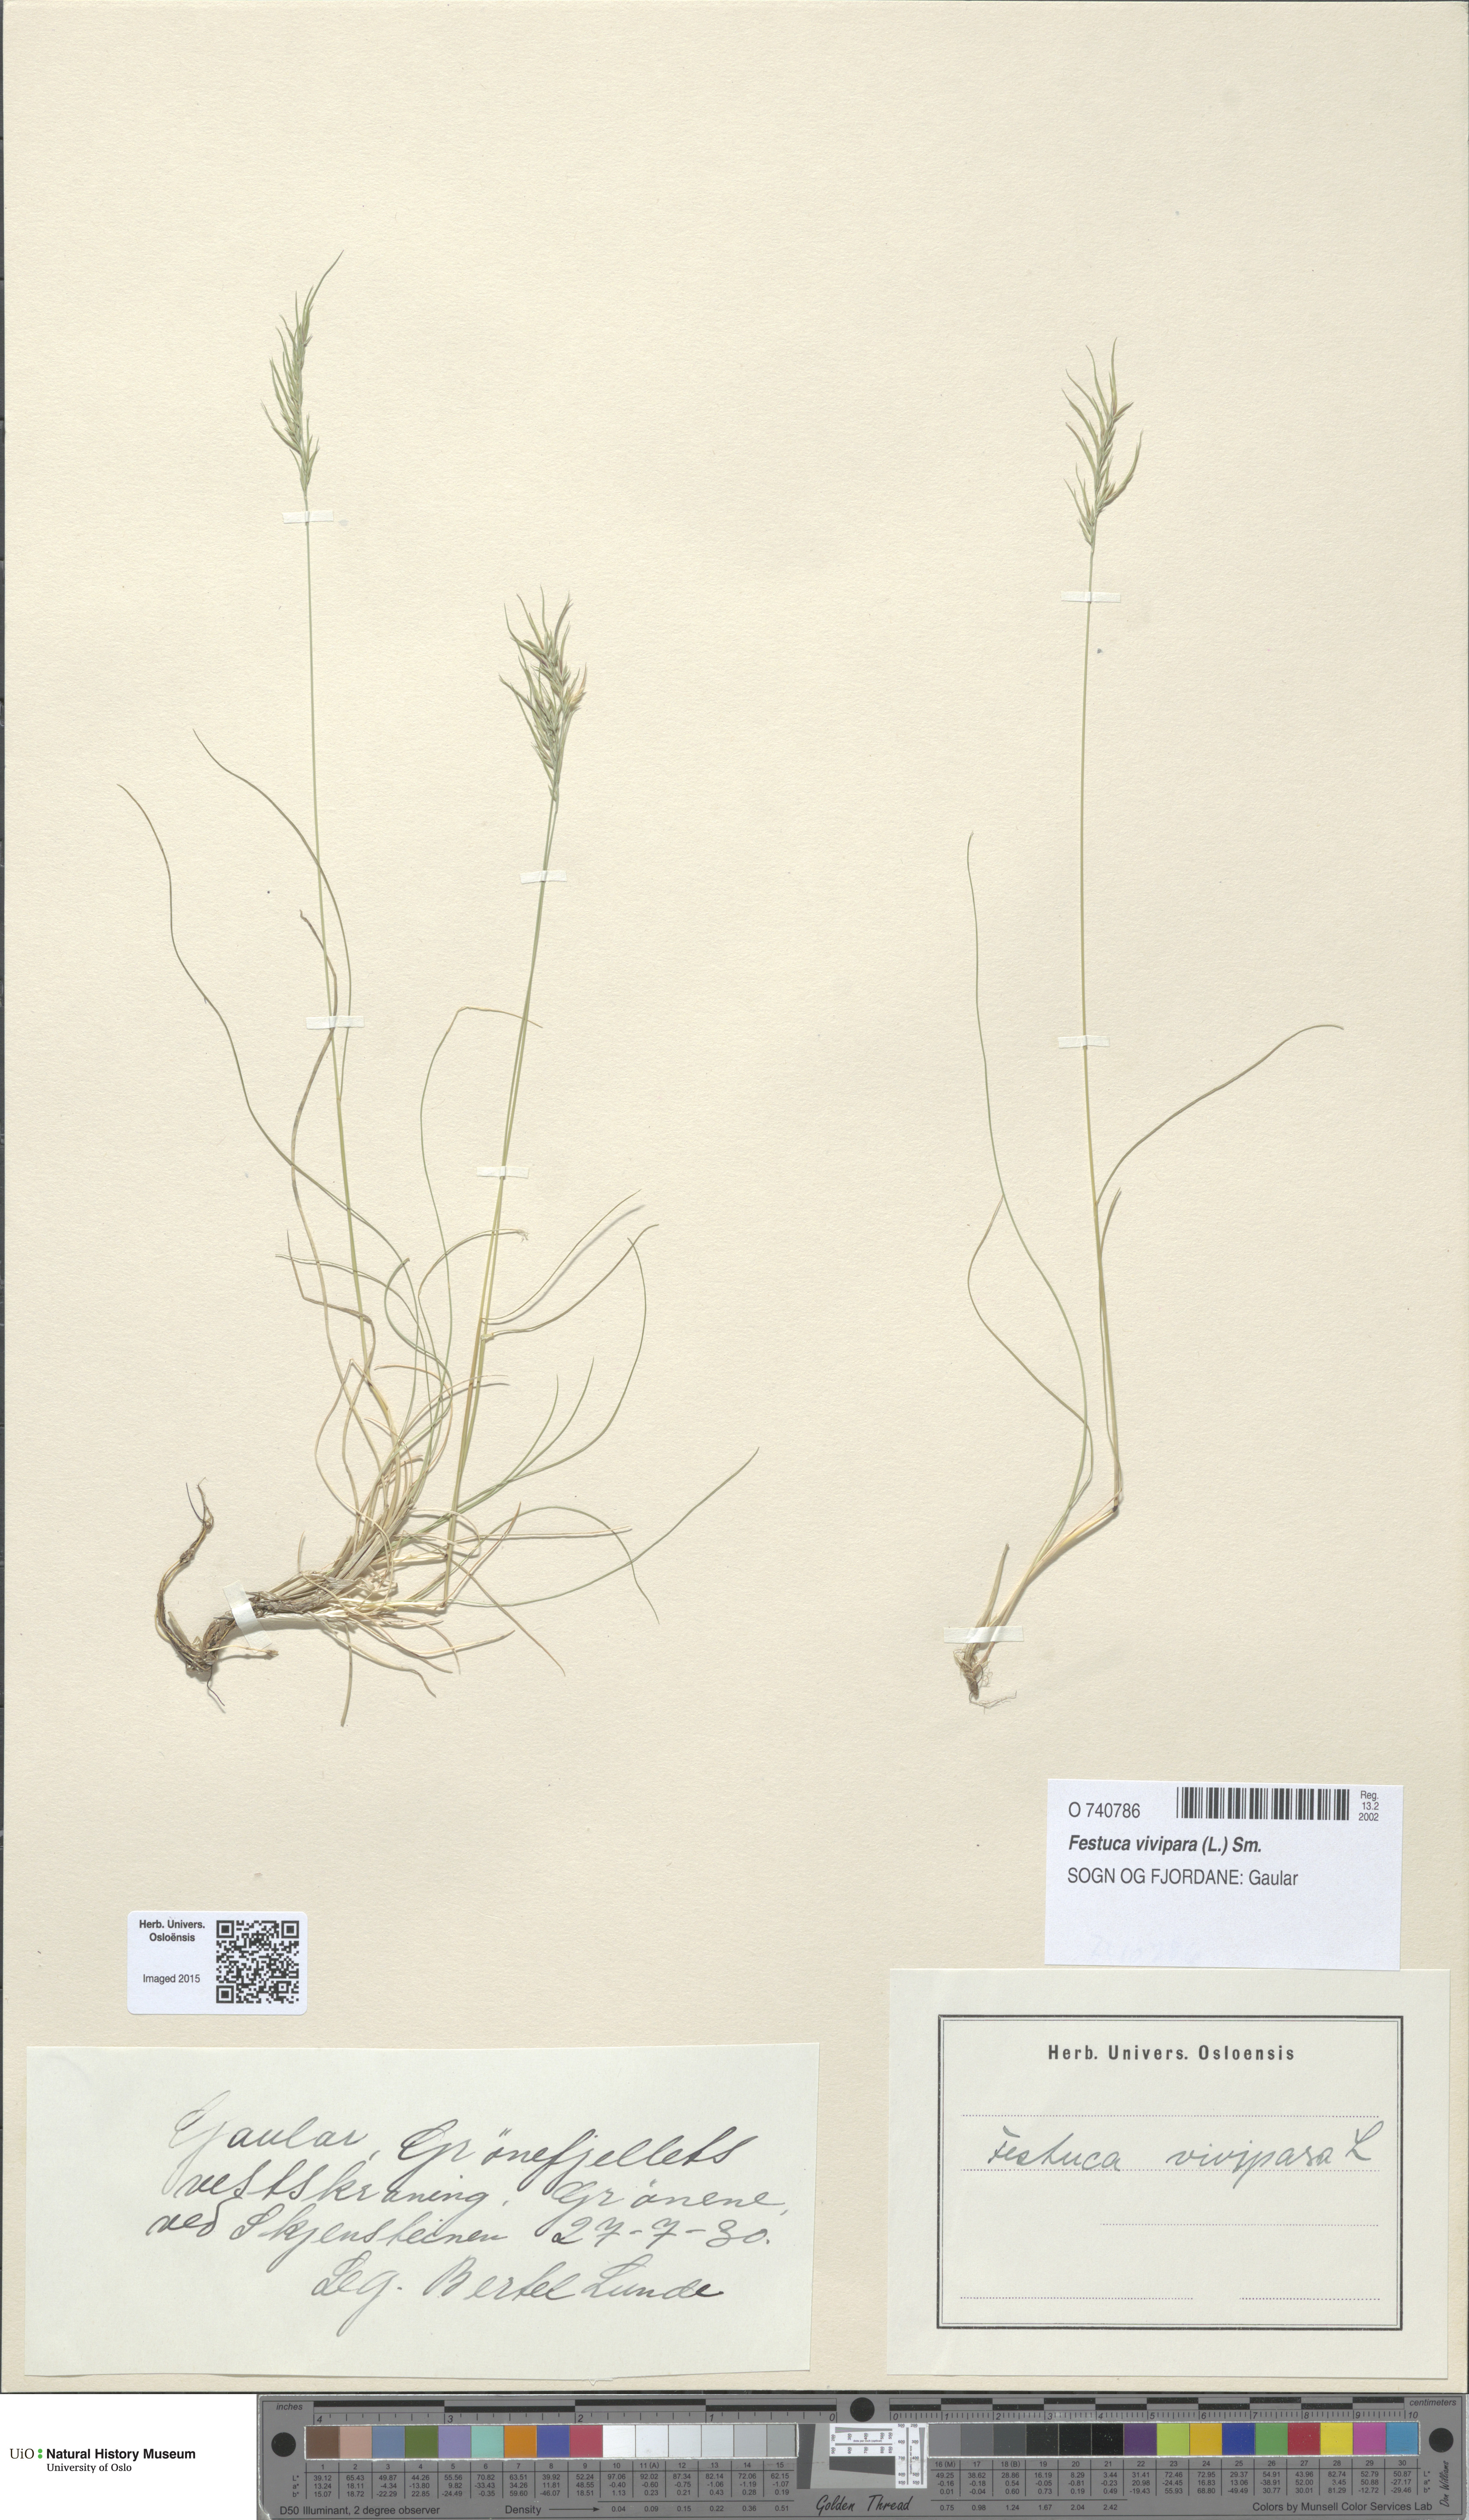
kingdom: Plantae
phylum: Tracheophyta
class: Liliopsida
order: Poales
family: Poaceae
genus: Festuca
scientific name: Festuca vivipara
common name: Viviparous sheep's-fescue
